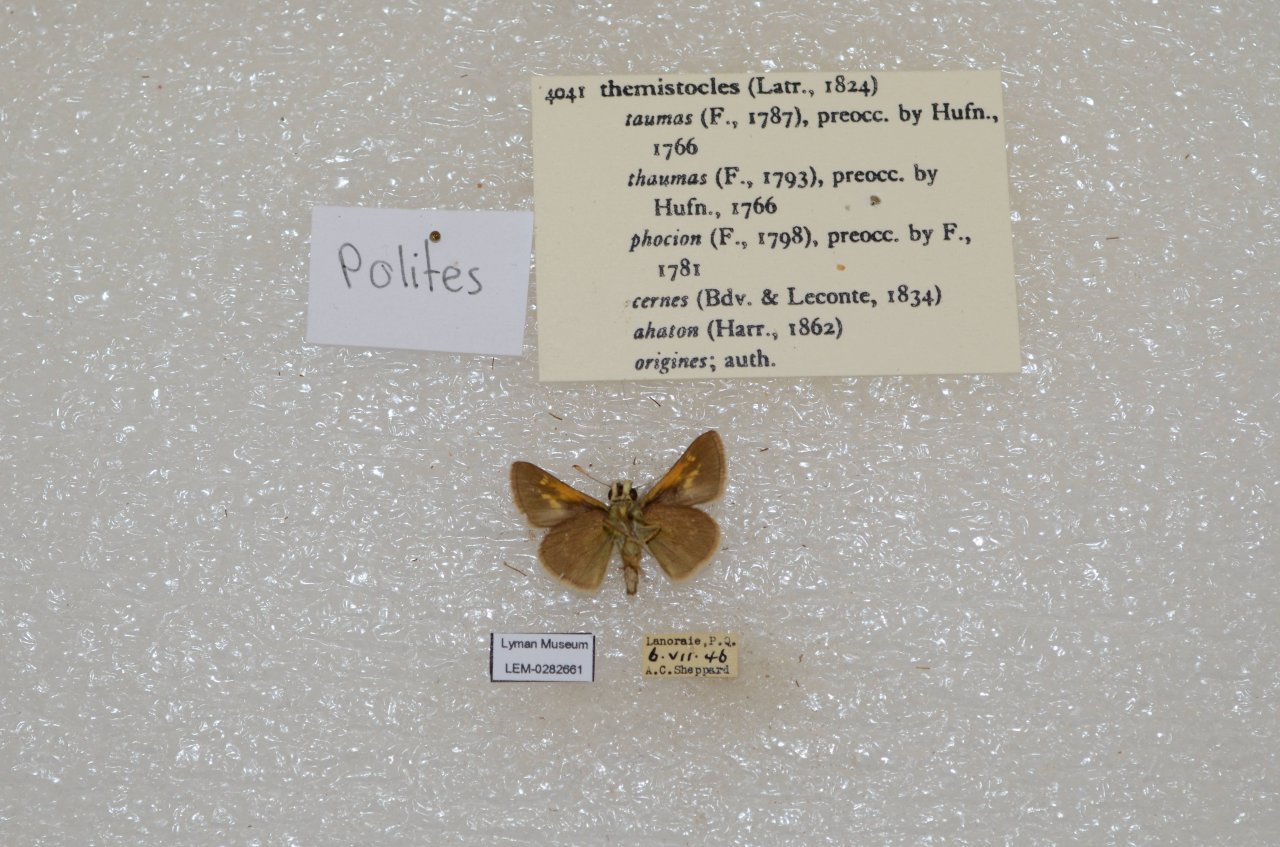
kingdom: Animalia
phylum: Arthropoda
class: Insecta
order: Lepidoptera
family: Hesperiidae
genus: Polites
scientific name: Polites themistocles
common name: Tawny-edged Skipper
